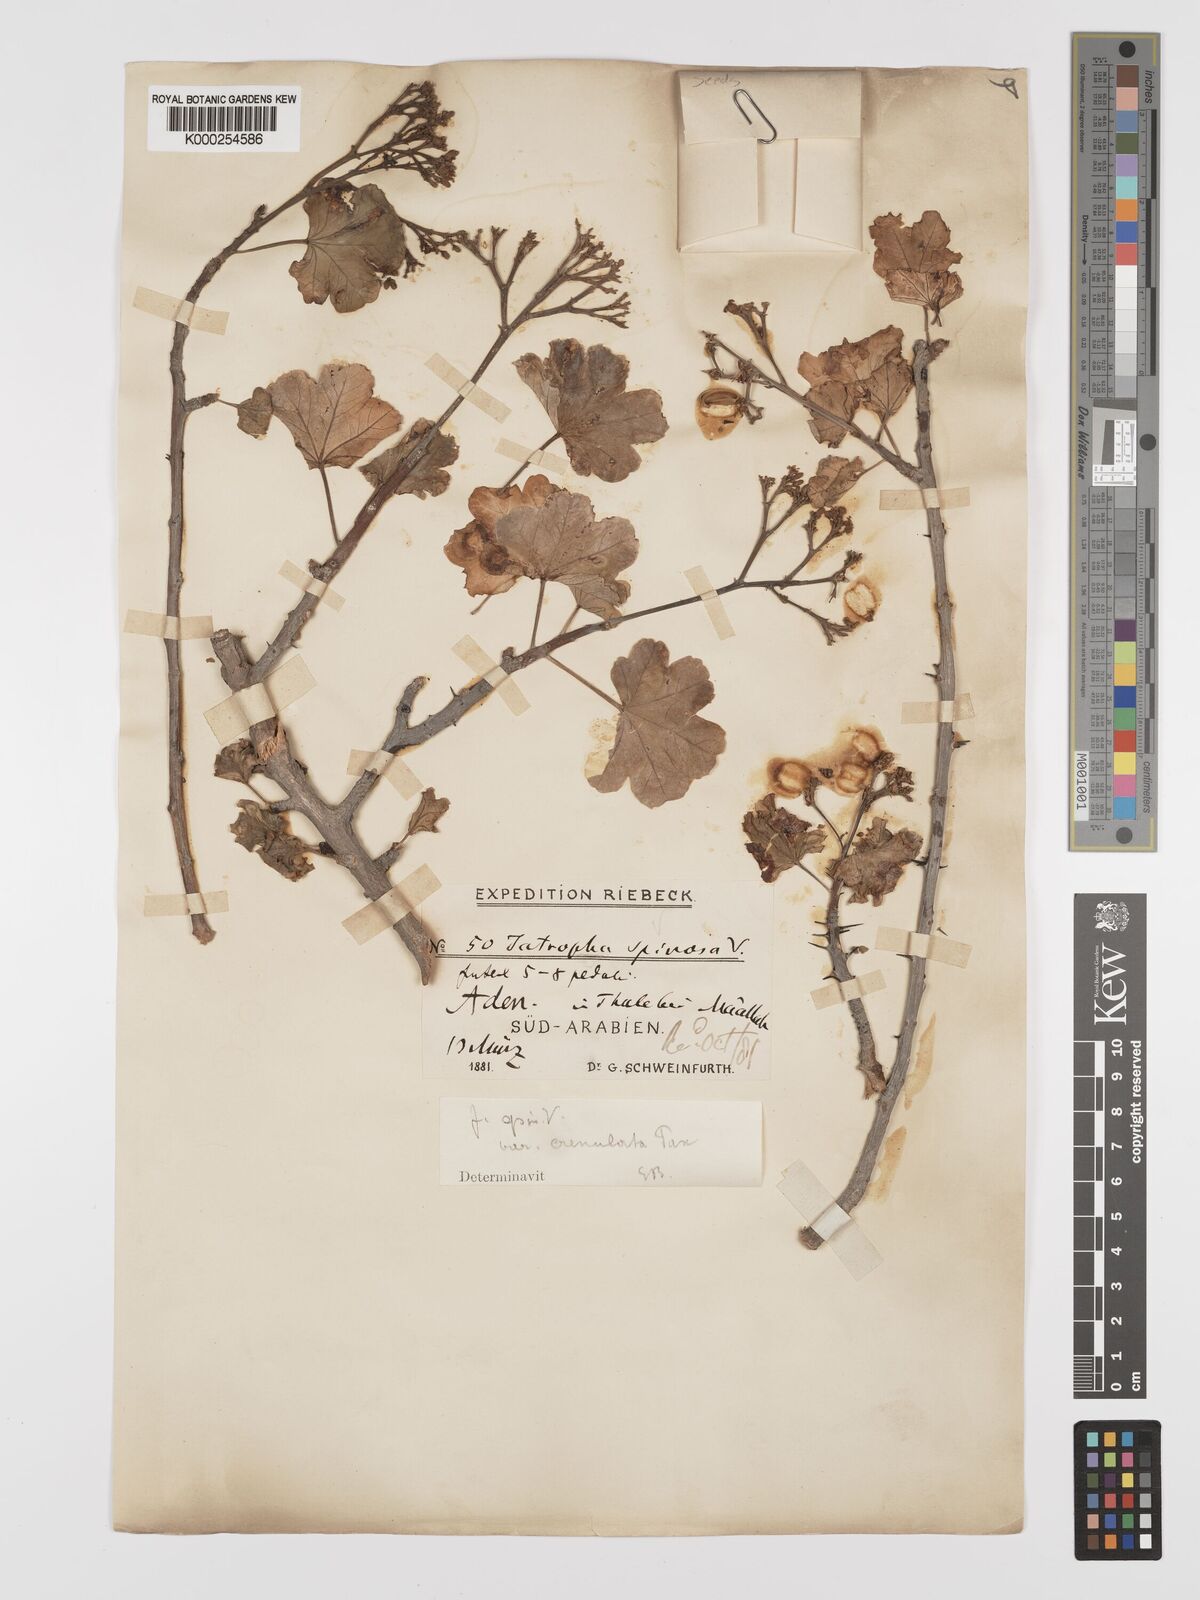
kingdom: Plantae
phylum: Tracheophyta
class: Magnoliopsida
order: Malpighiales
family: Euphorbiaceae
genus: Jatropha
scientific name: Jatropha spinosa
